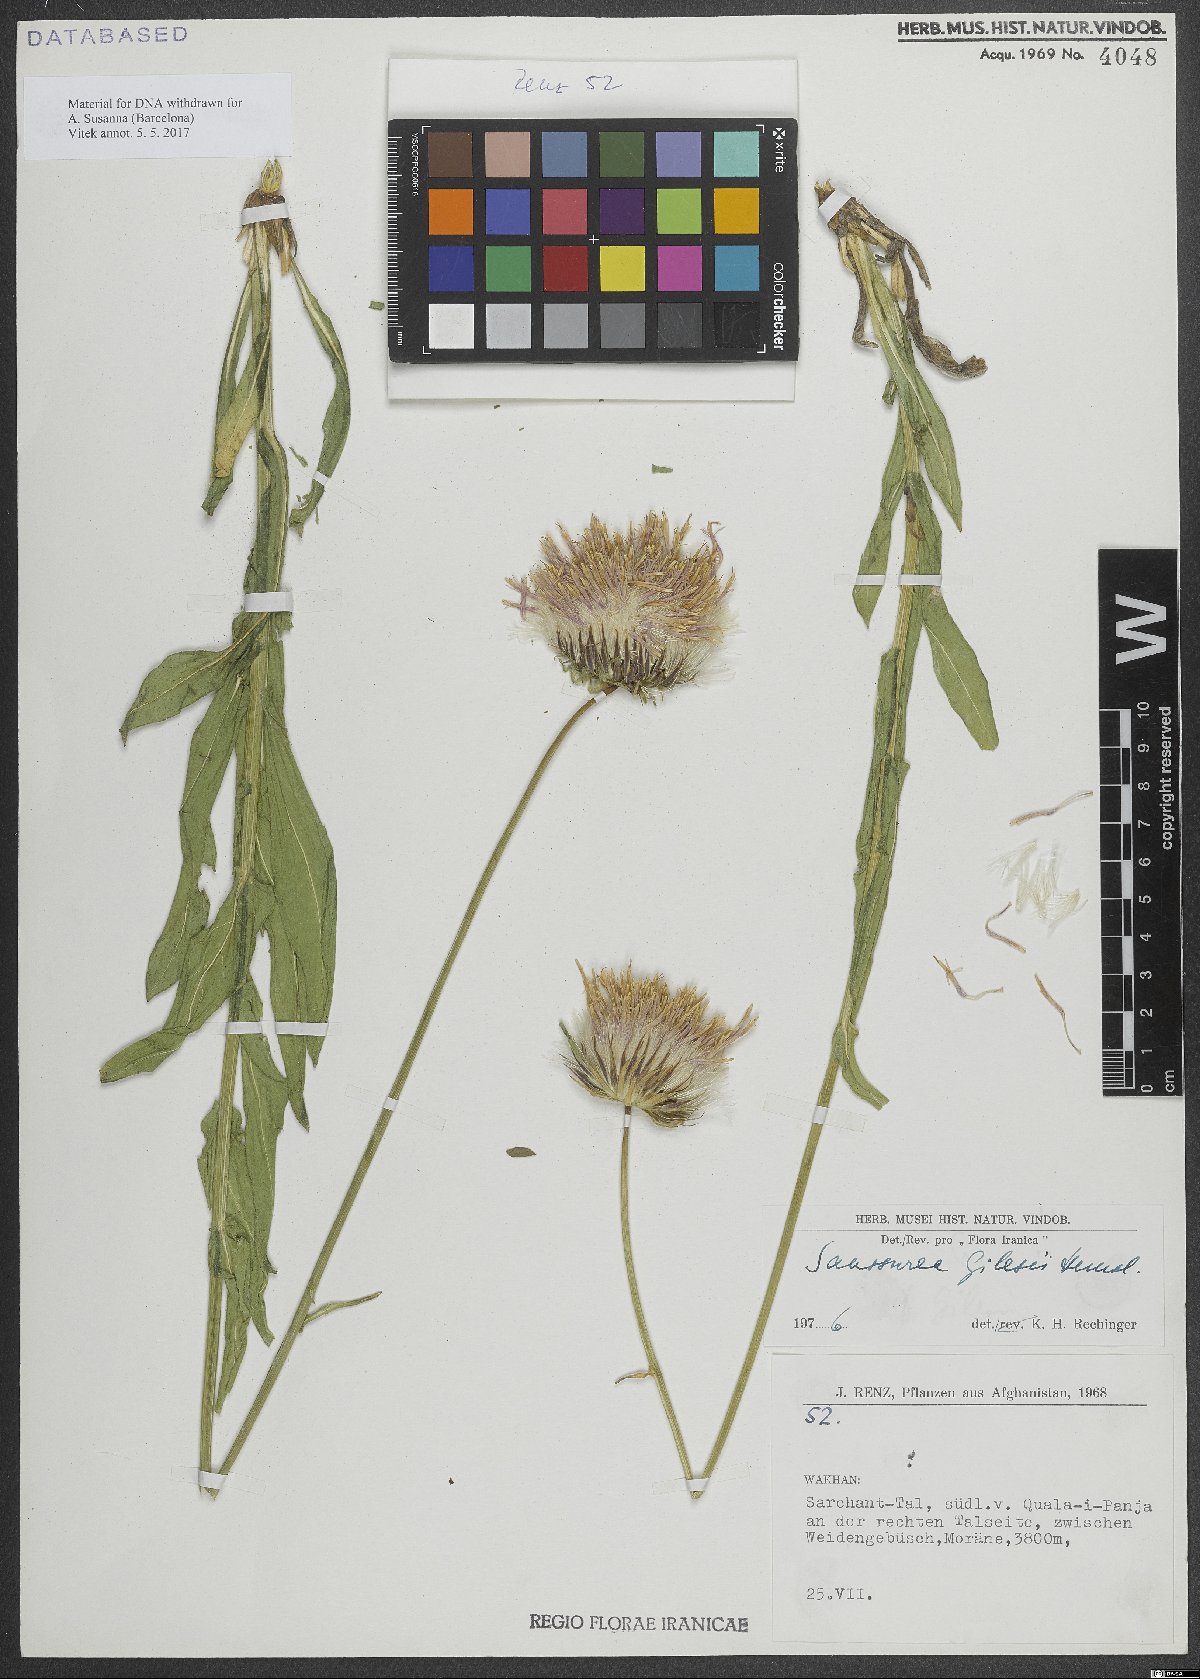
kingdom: Plantae
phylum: Tracheophyta
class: Magnoliopsida
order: Asterales
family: Asteraceae
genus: Jurinea
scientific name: Jurinea gilesii
